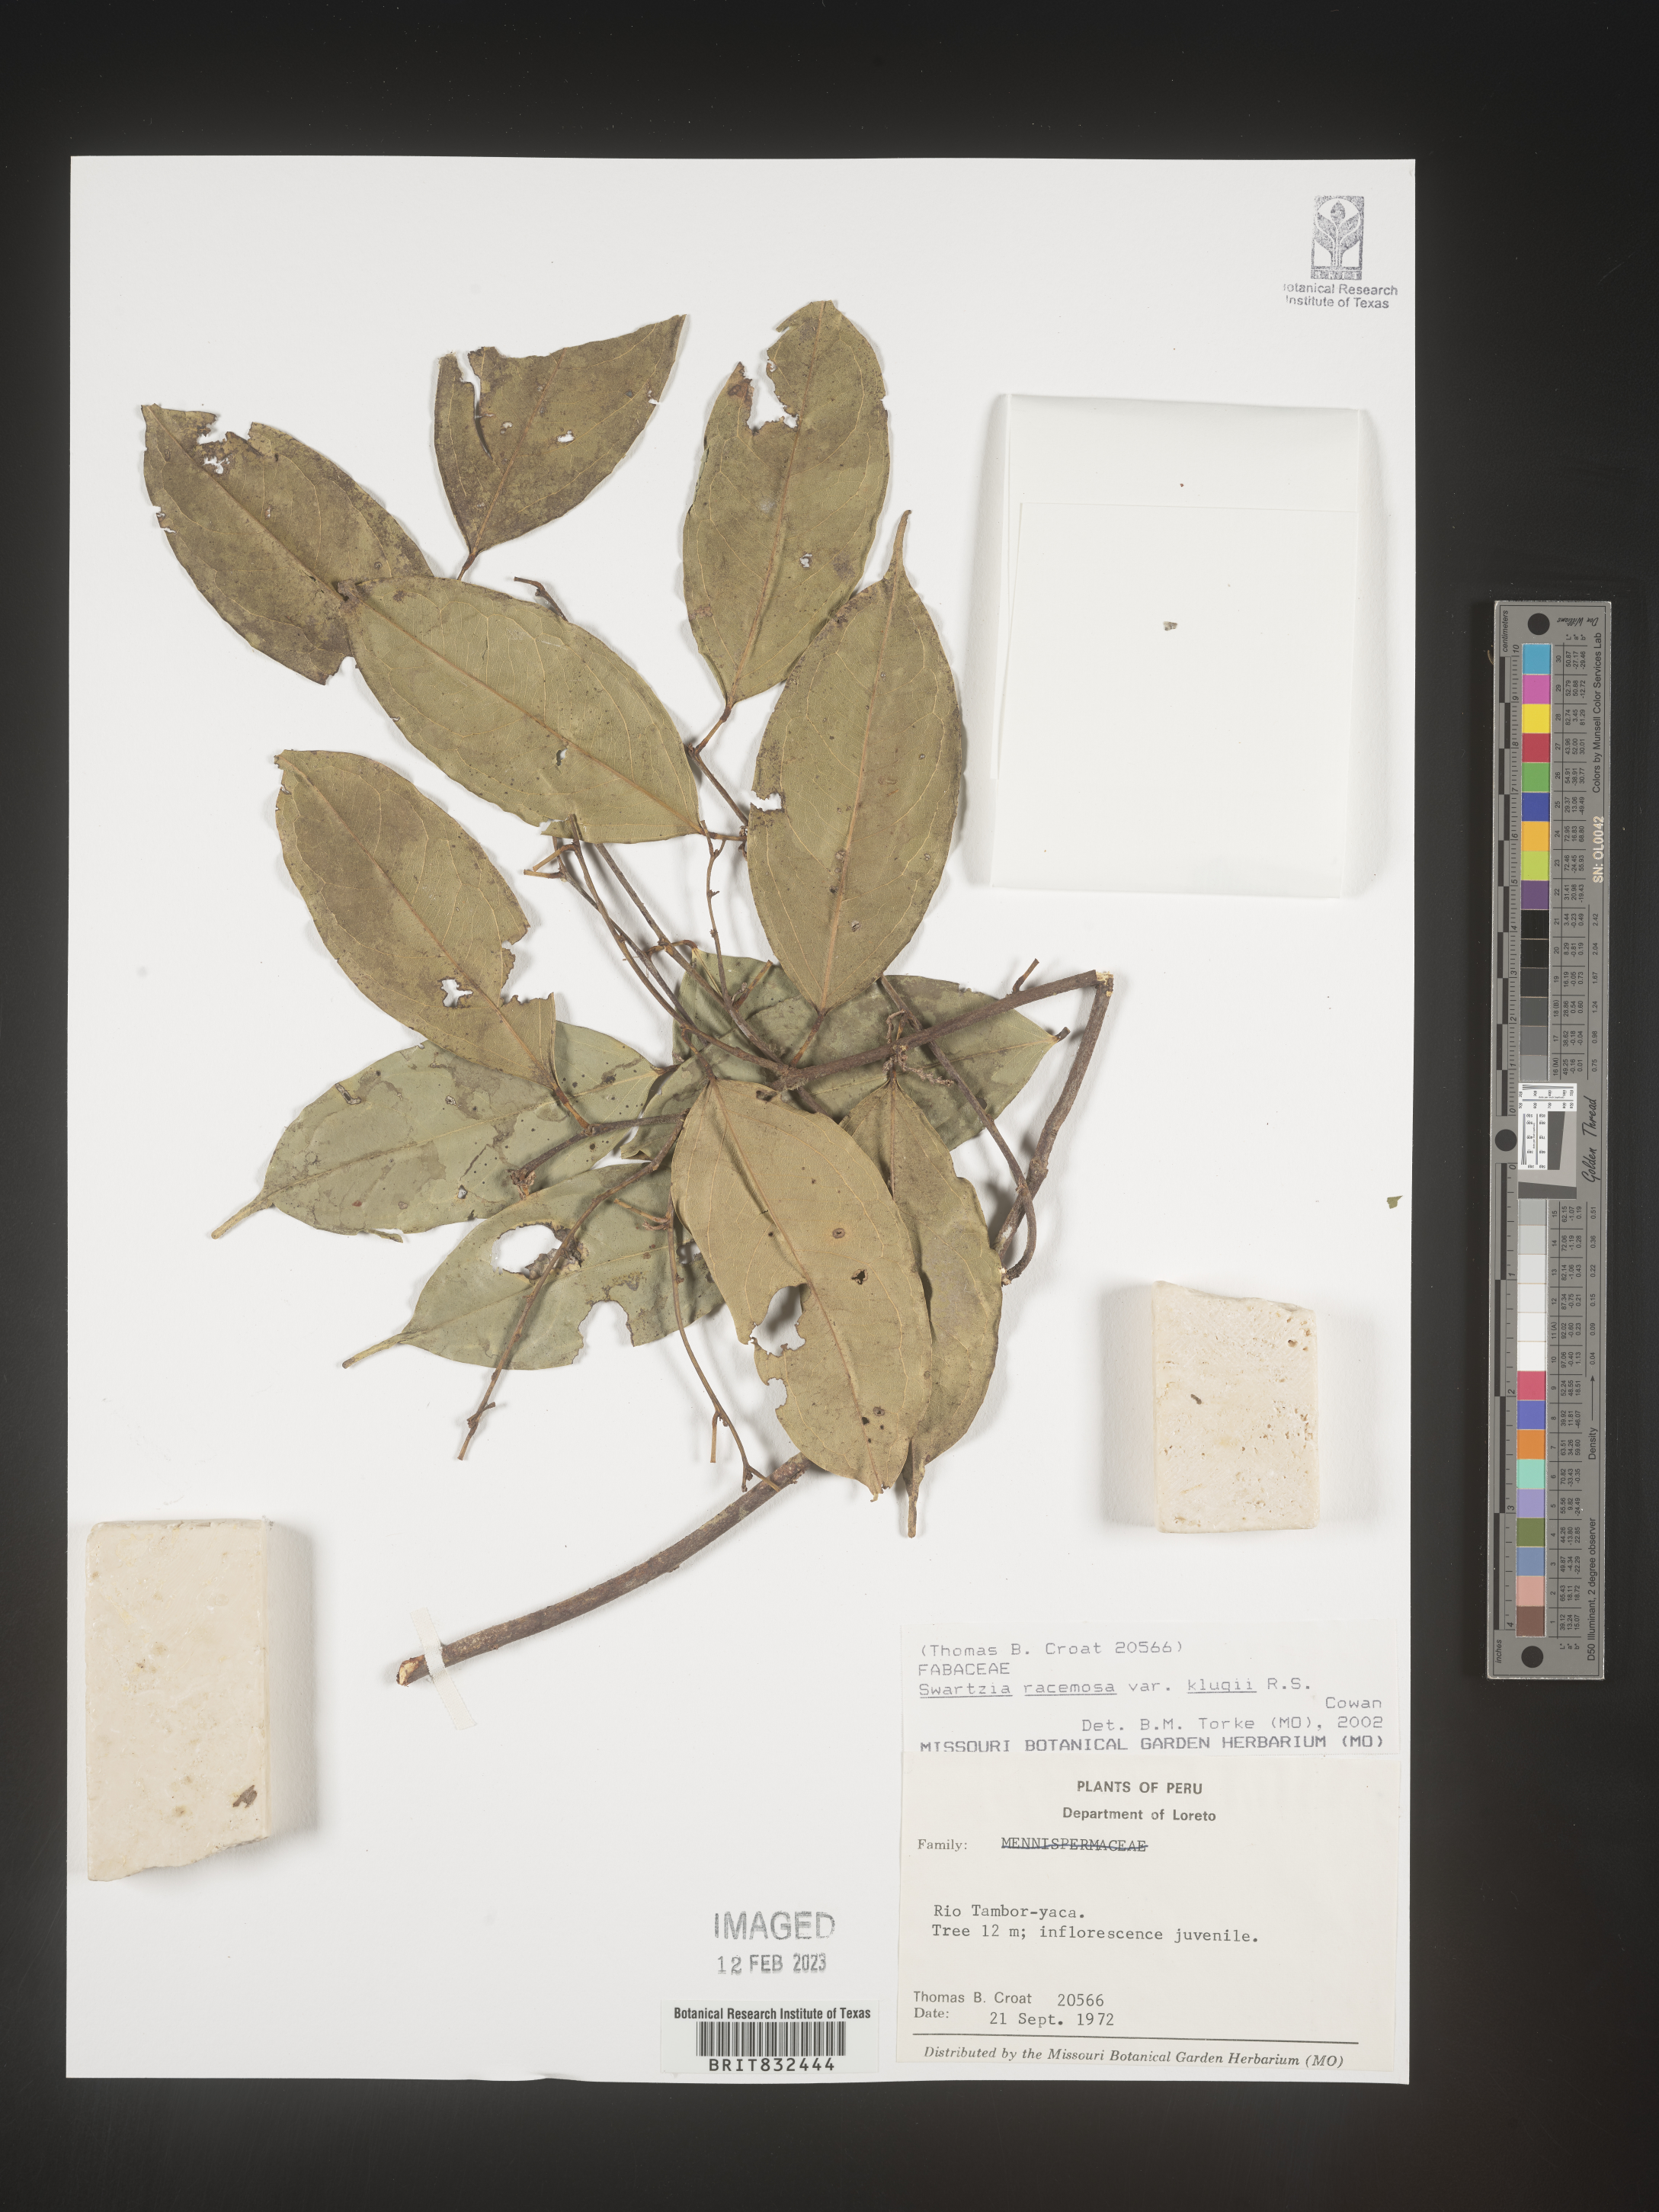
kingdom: Plantae
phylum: Tracheophyta
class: Magnoliopsida
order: Fabales
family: Fabaceae
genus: Swartzia
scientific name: Swartzia
